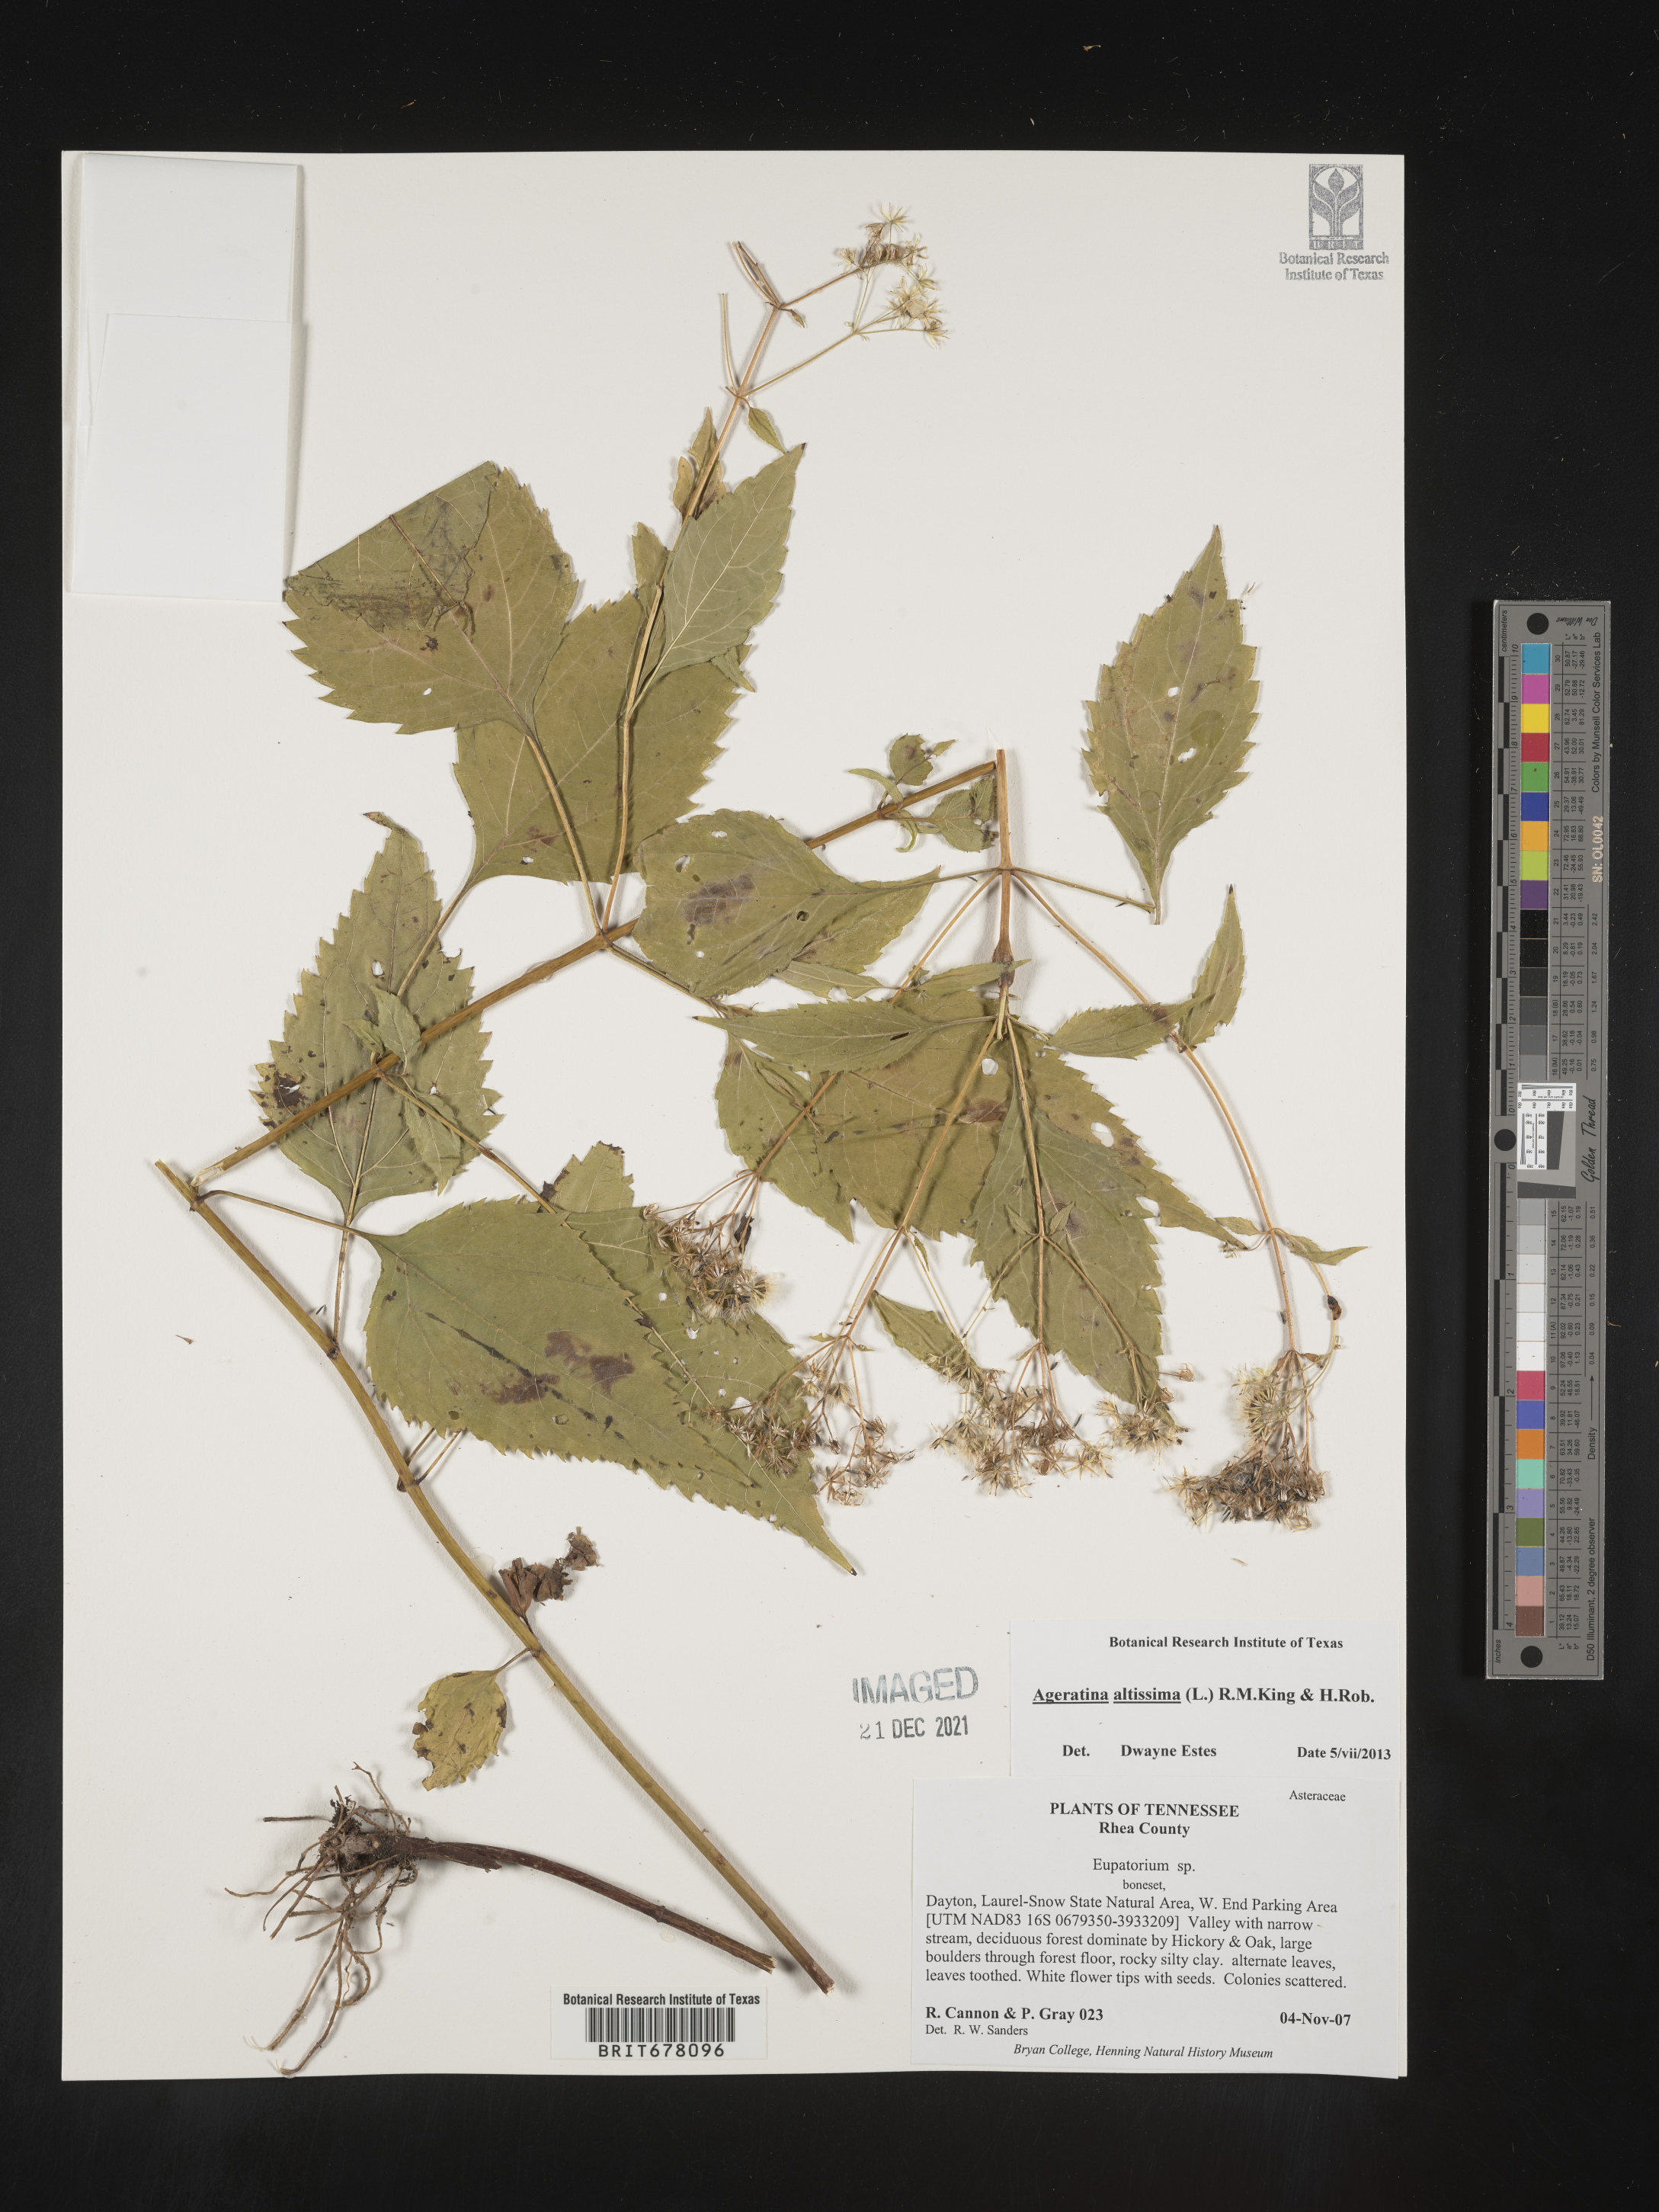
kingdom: Plantae
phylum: Tracheophyta
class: Magnoliopsida
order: Asterales
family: Asteraceae
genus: Eupatorium
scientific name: Eupatorium
